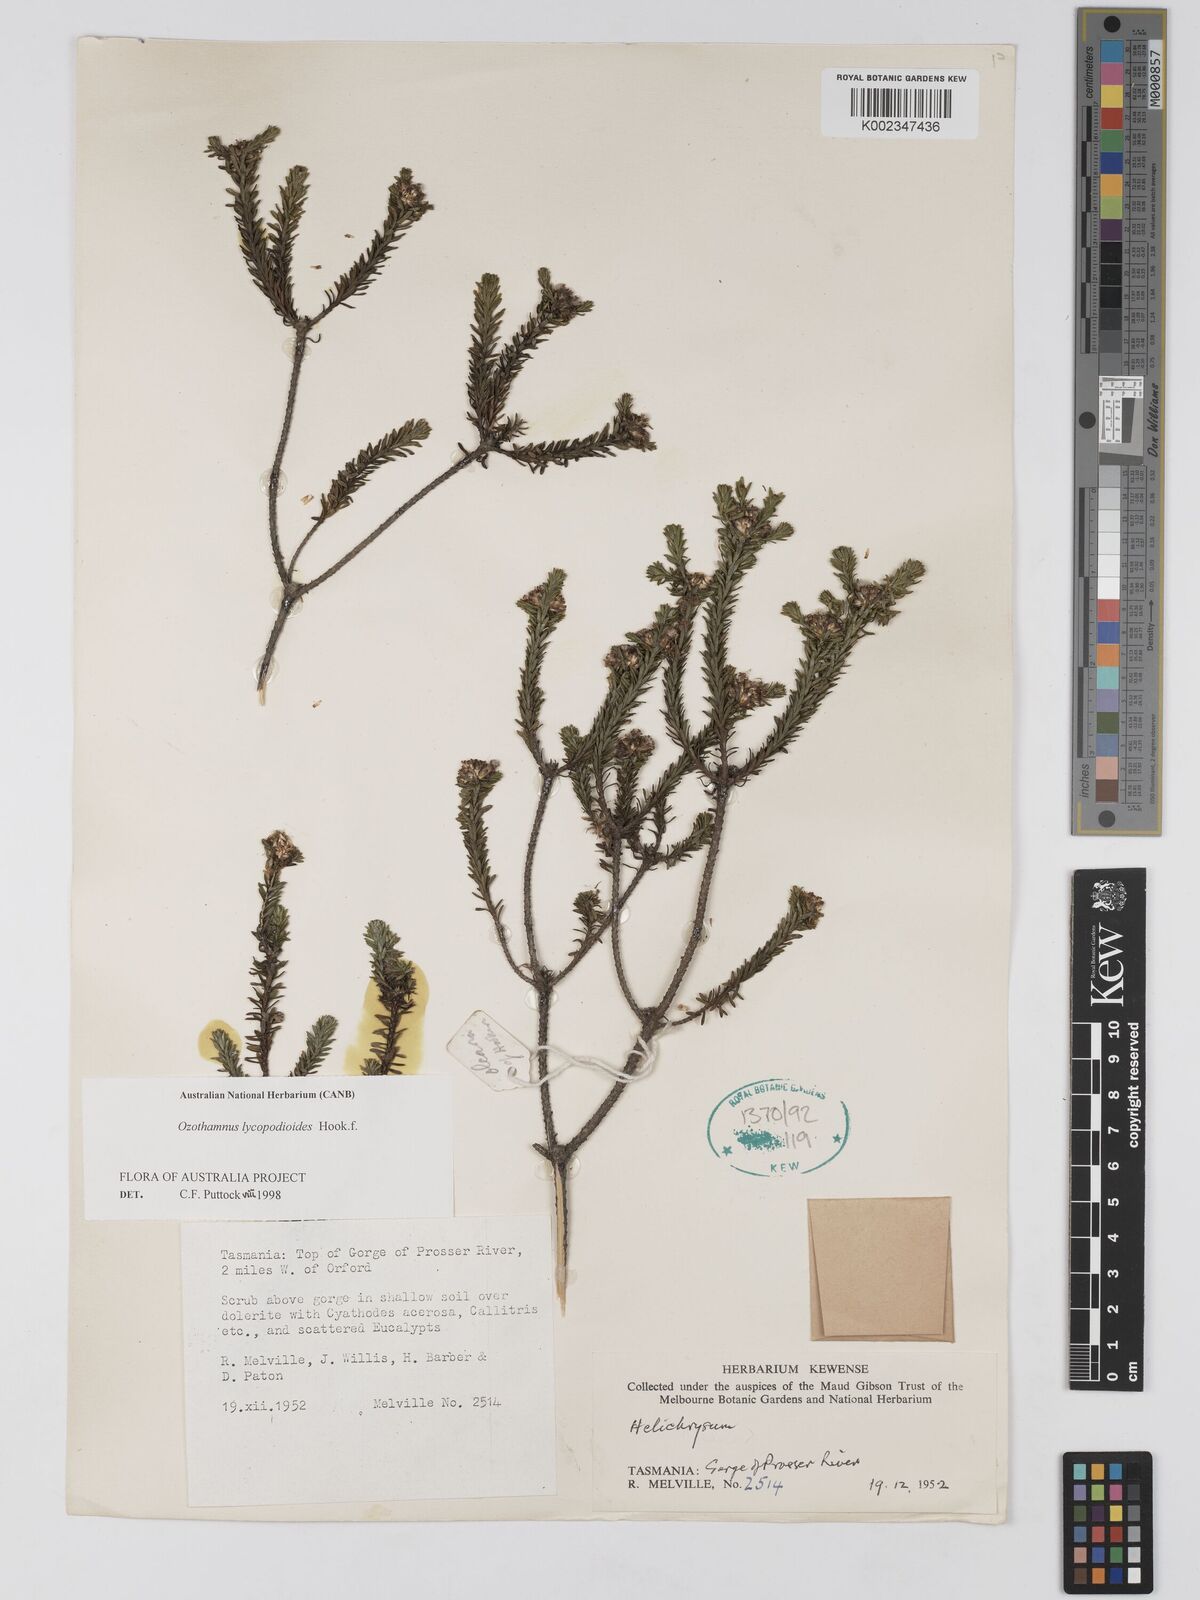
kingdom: Plantae
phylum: Tracheophyta
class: Magnoliopsida
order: Asterales
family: Asteraceae
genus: Ozothamnus
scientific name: Ozothamnus lycopodioides
